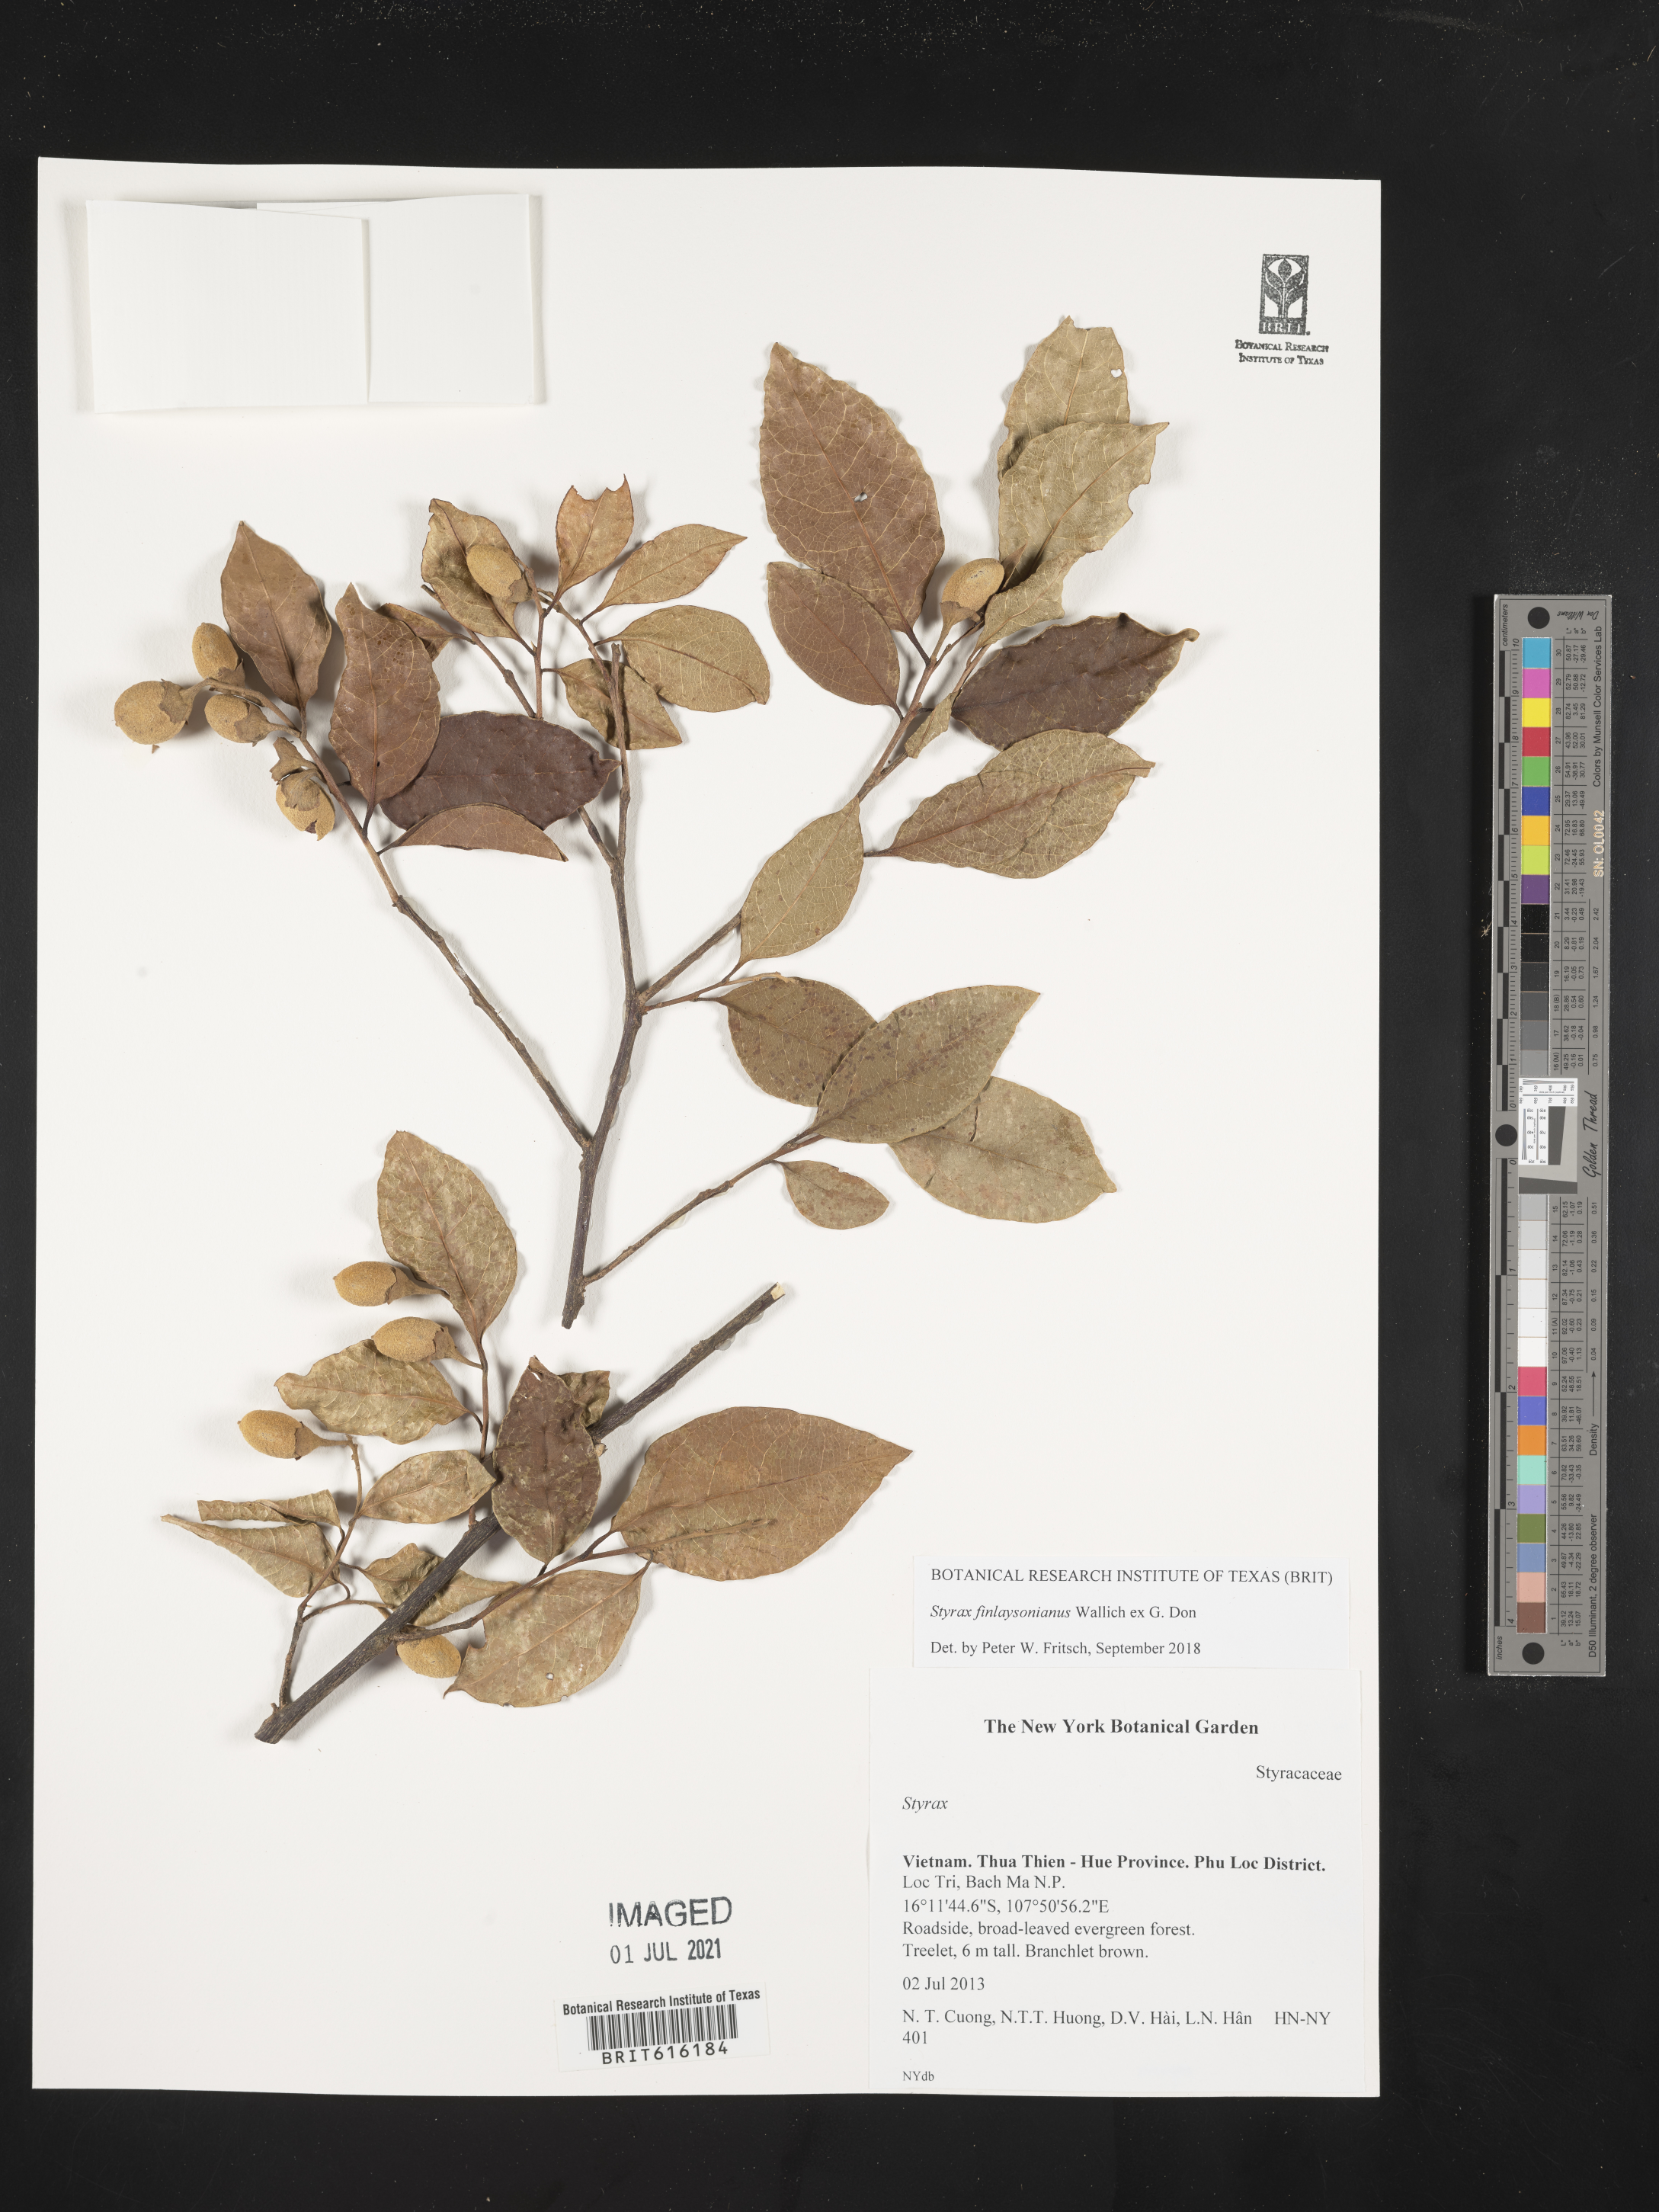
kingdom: Plantae
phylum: Tracheophyta
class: Magnoliopsida
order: Ericales
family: Styracaceae
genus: Styrax
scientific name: Styrax finlaysonianus
